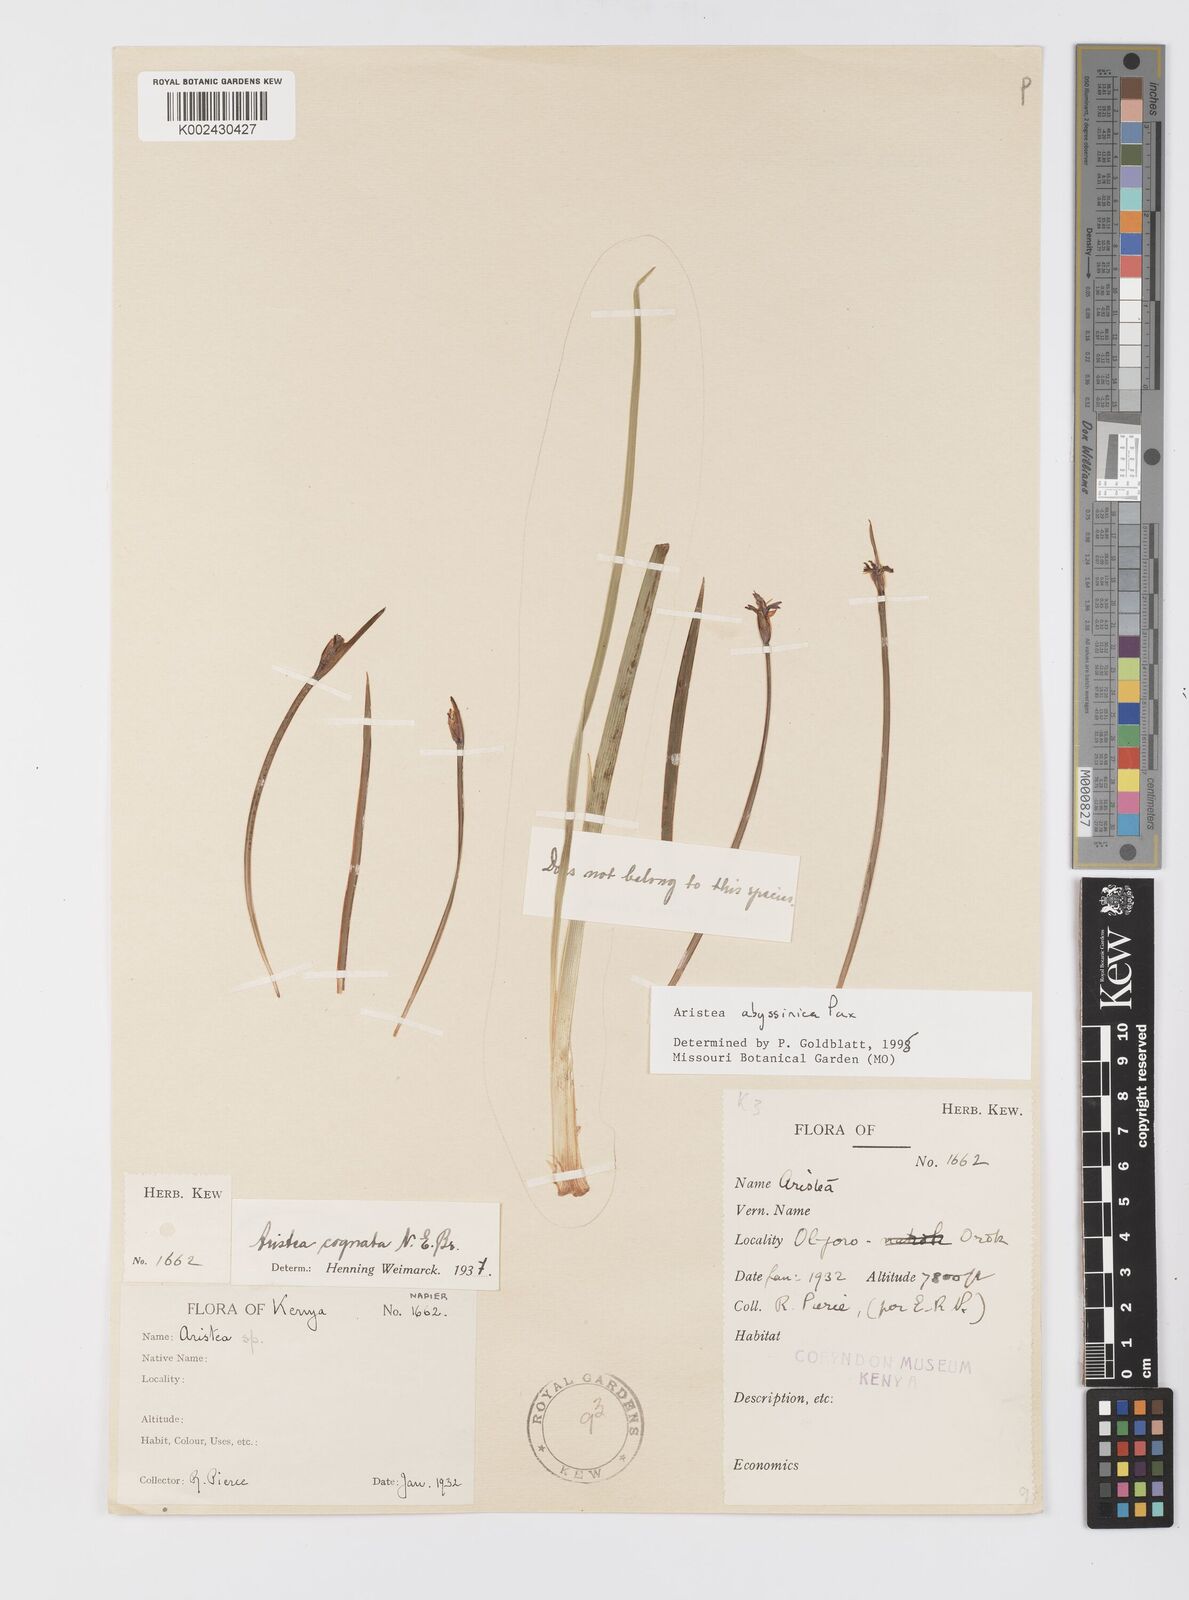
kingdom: Plantae
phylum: Tracheophyta
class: Liliopsida
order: Asparagales
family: Iridaceae
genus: Aristea
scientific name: Aristea abyssinica
